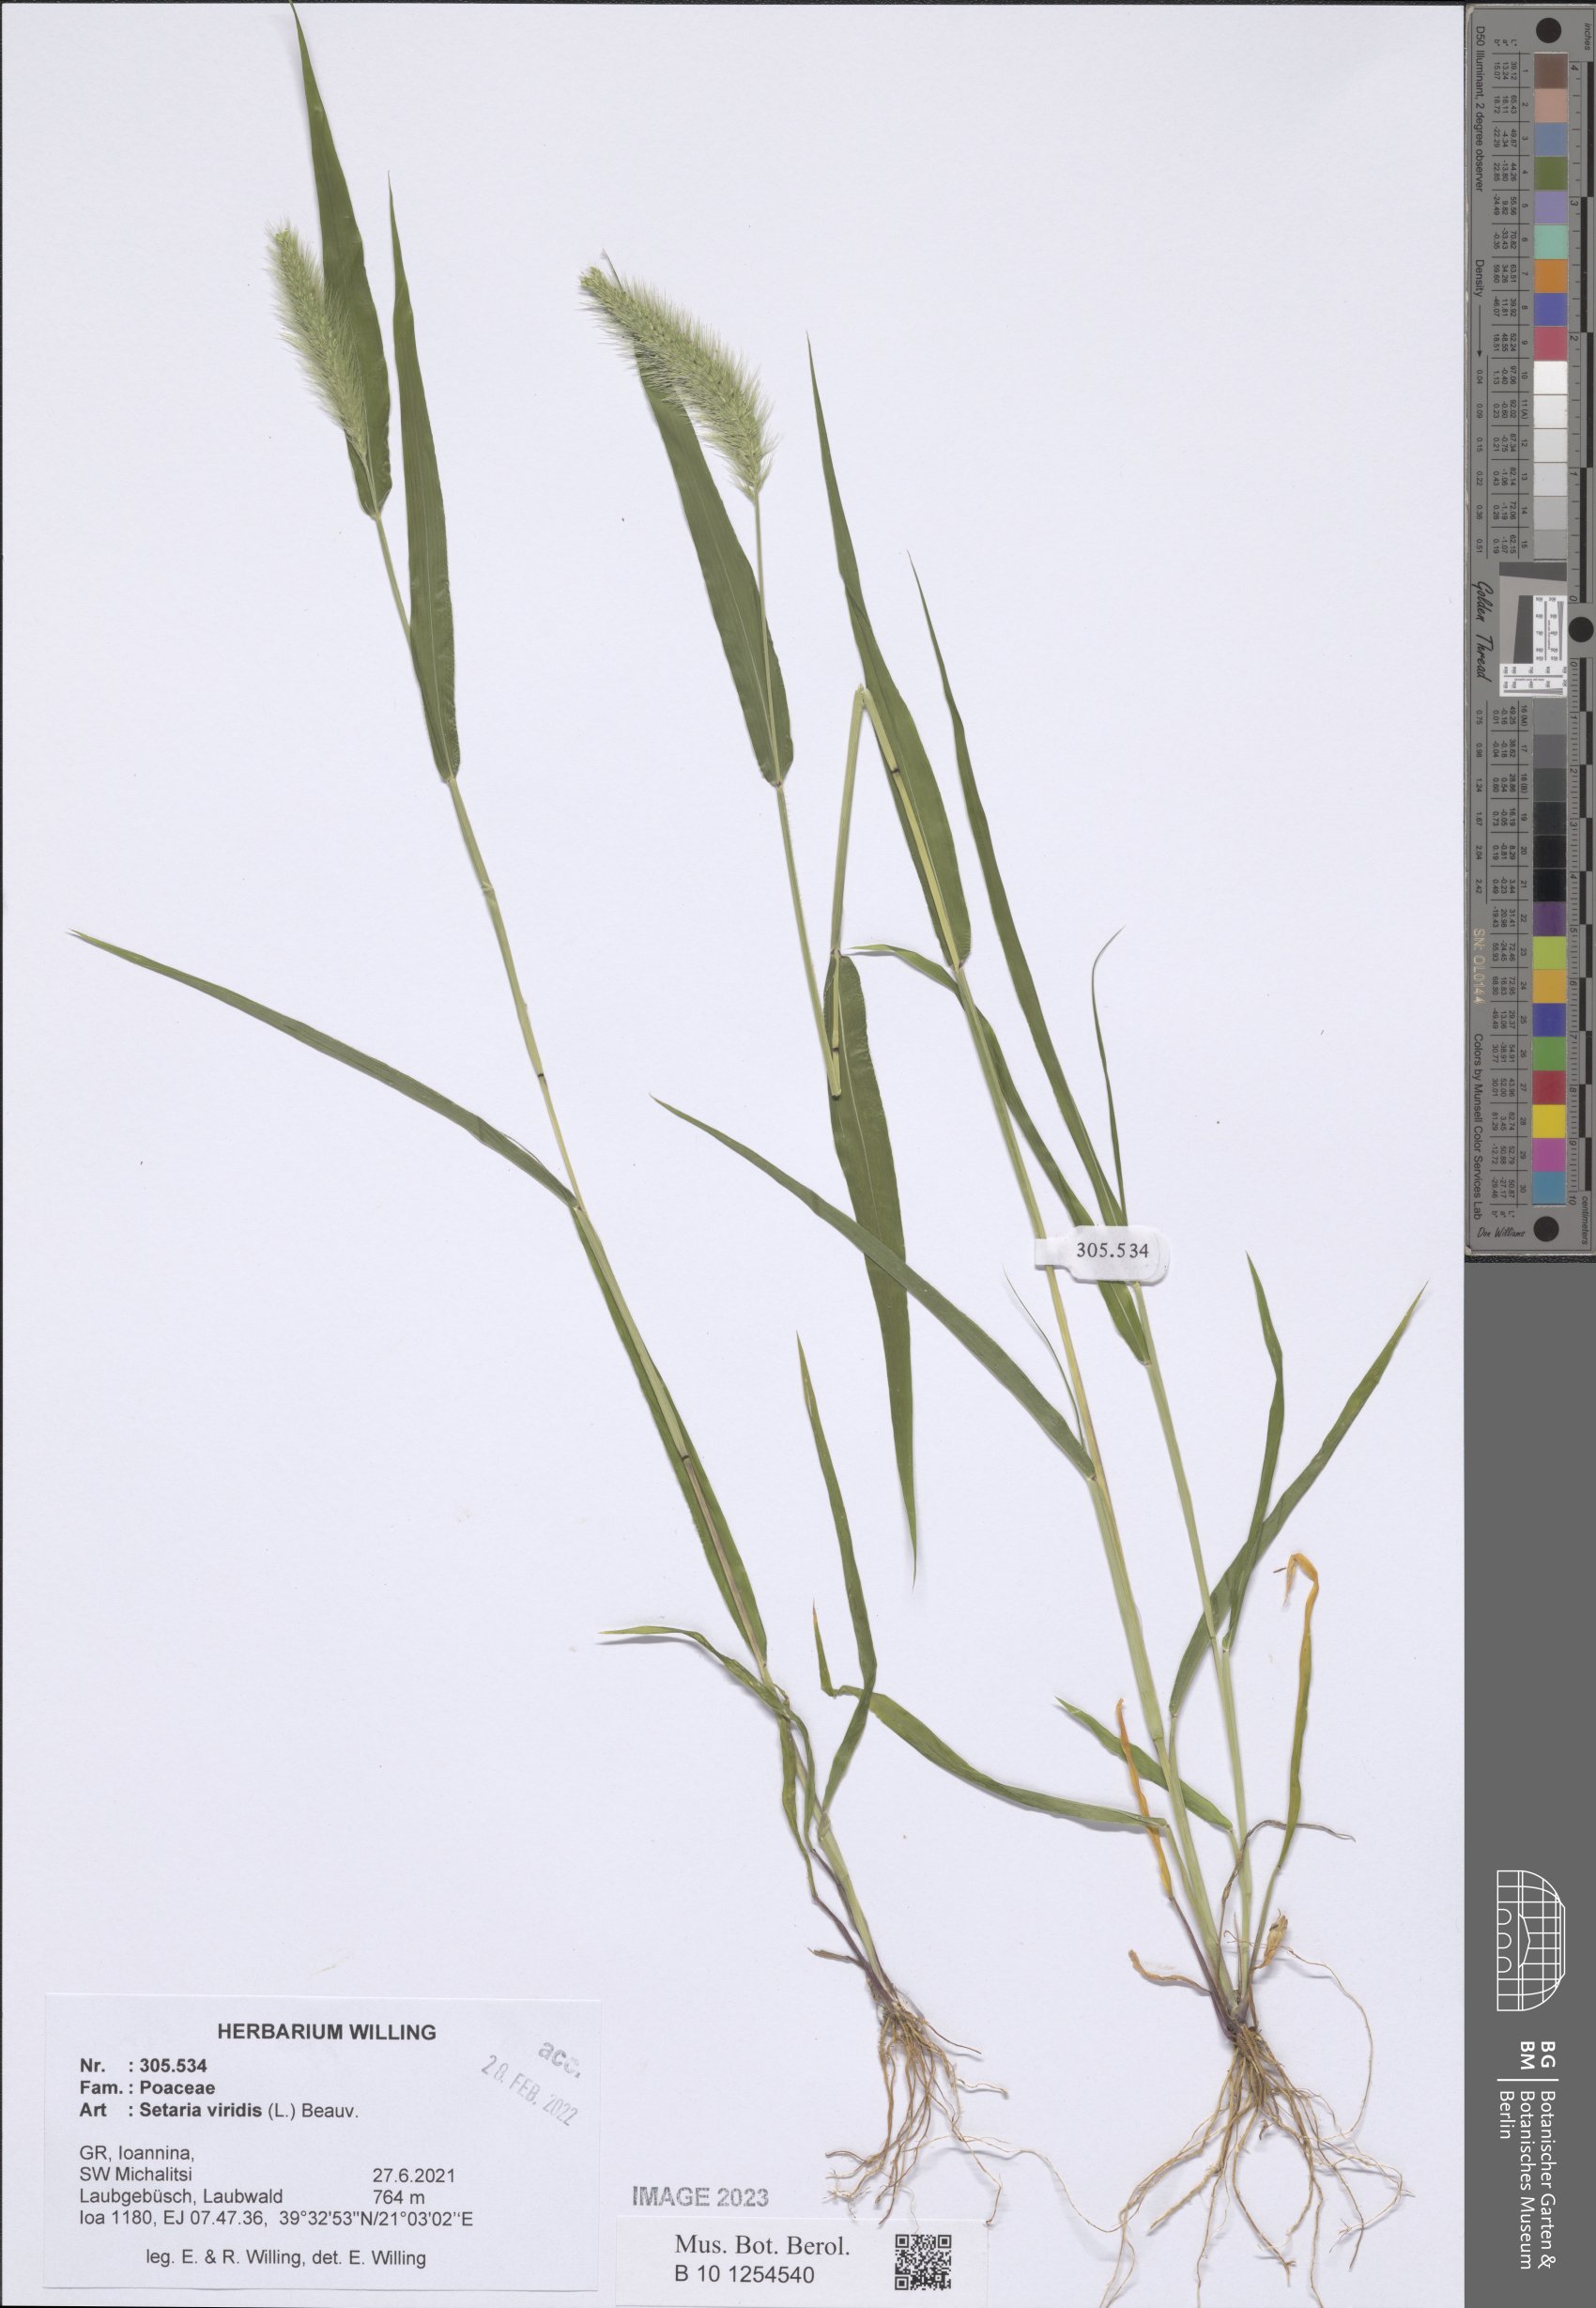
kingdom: Plantae
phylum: Tracheophyta
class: Liliopsida
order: Poales
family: Poaceae
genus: Setaria
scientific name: Setaria viridis
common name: Green bristlegrass
